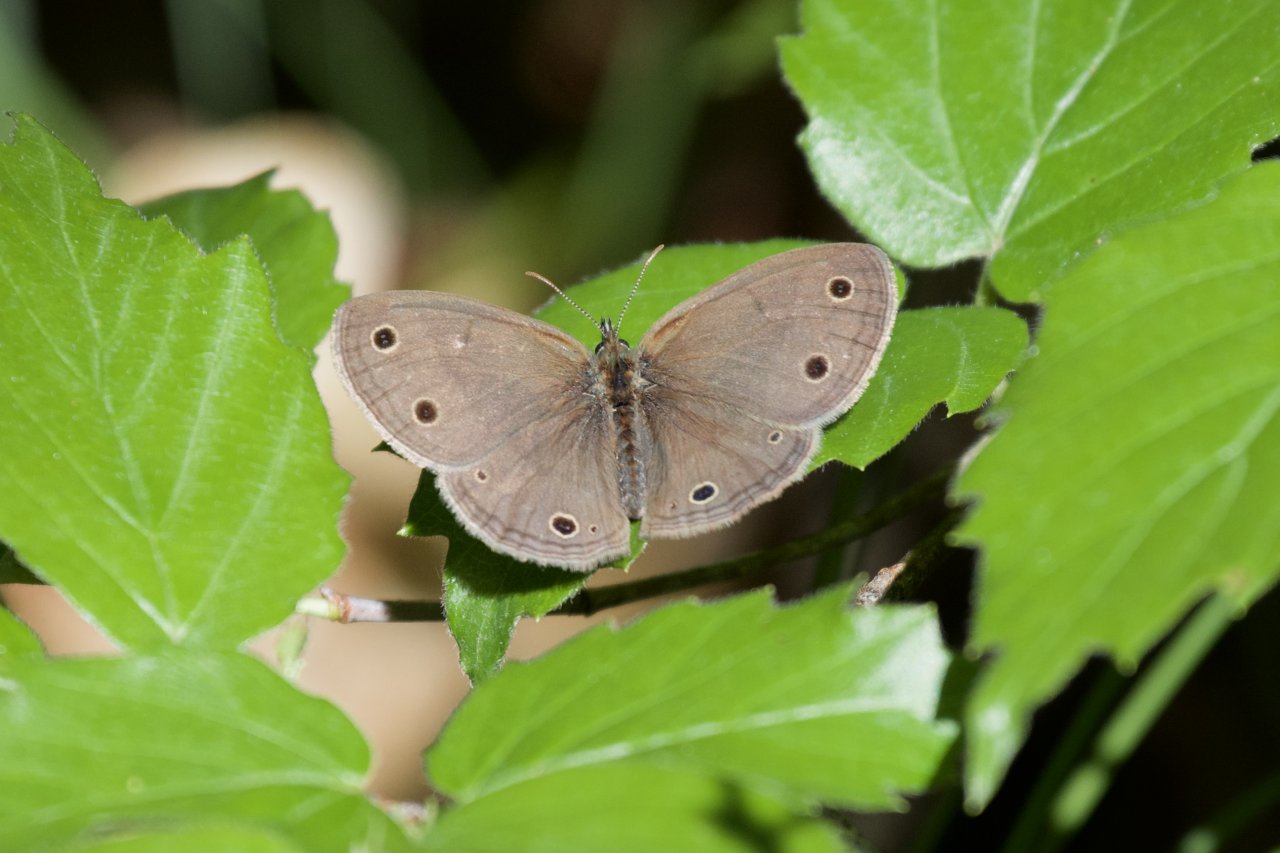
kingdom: Animalia
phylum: Arthropoda
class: Insecta
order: Lepidoptera
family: Nymphalidae
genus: Euptychia
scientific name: Euptychia cymela
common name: Little Wood Satyr
